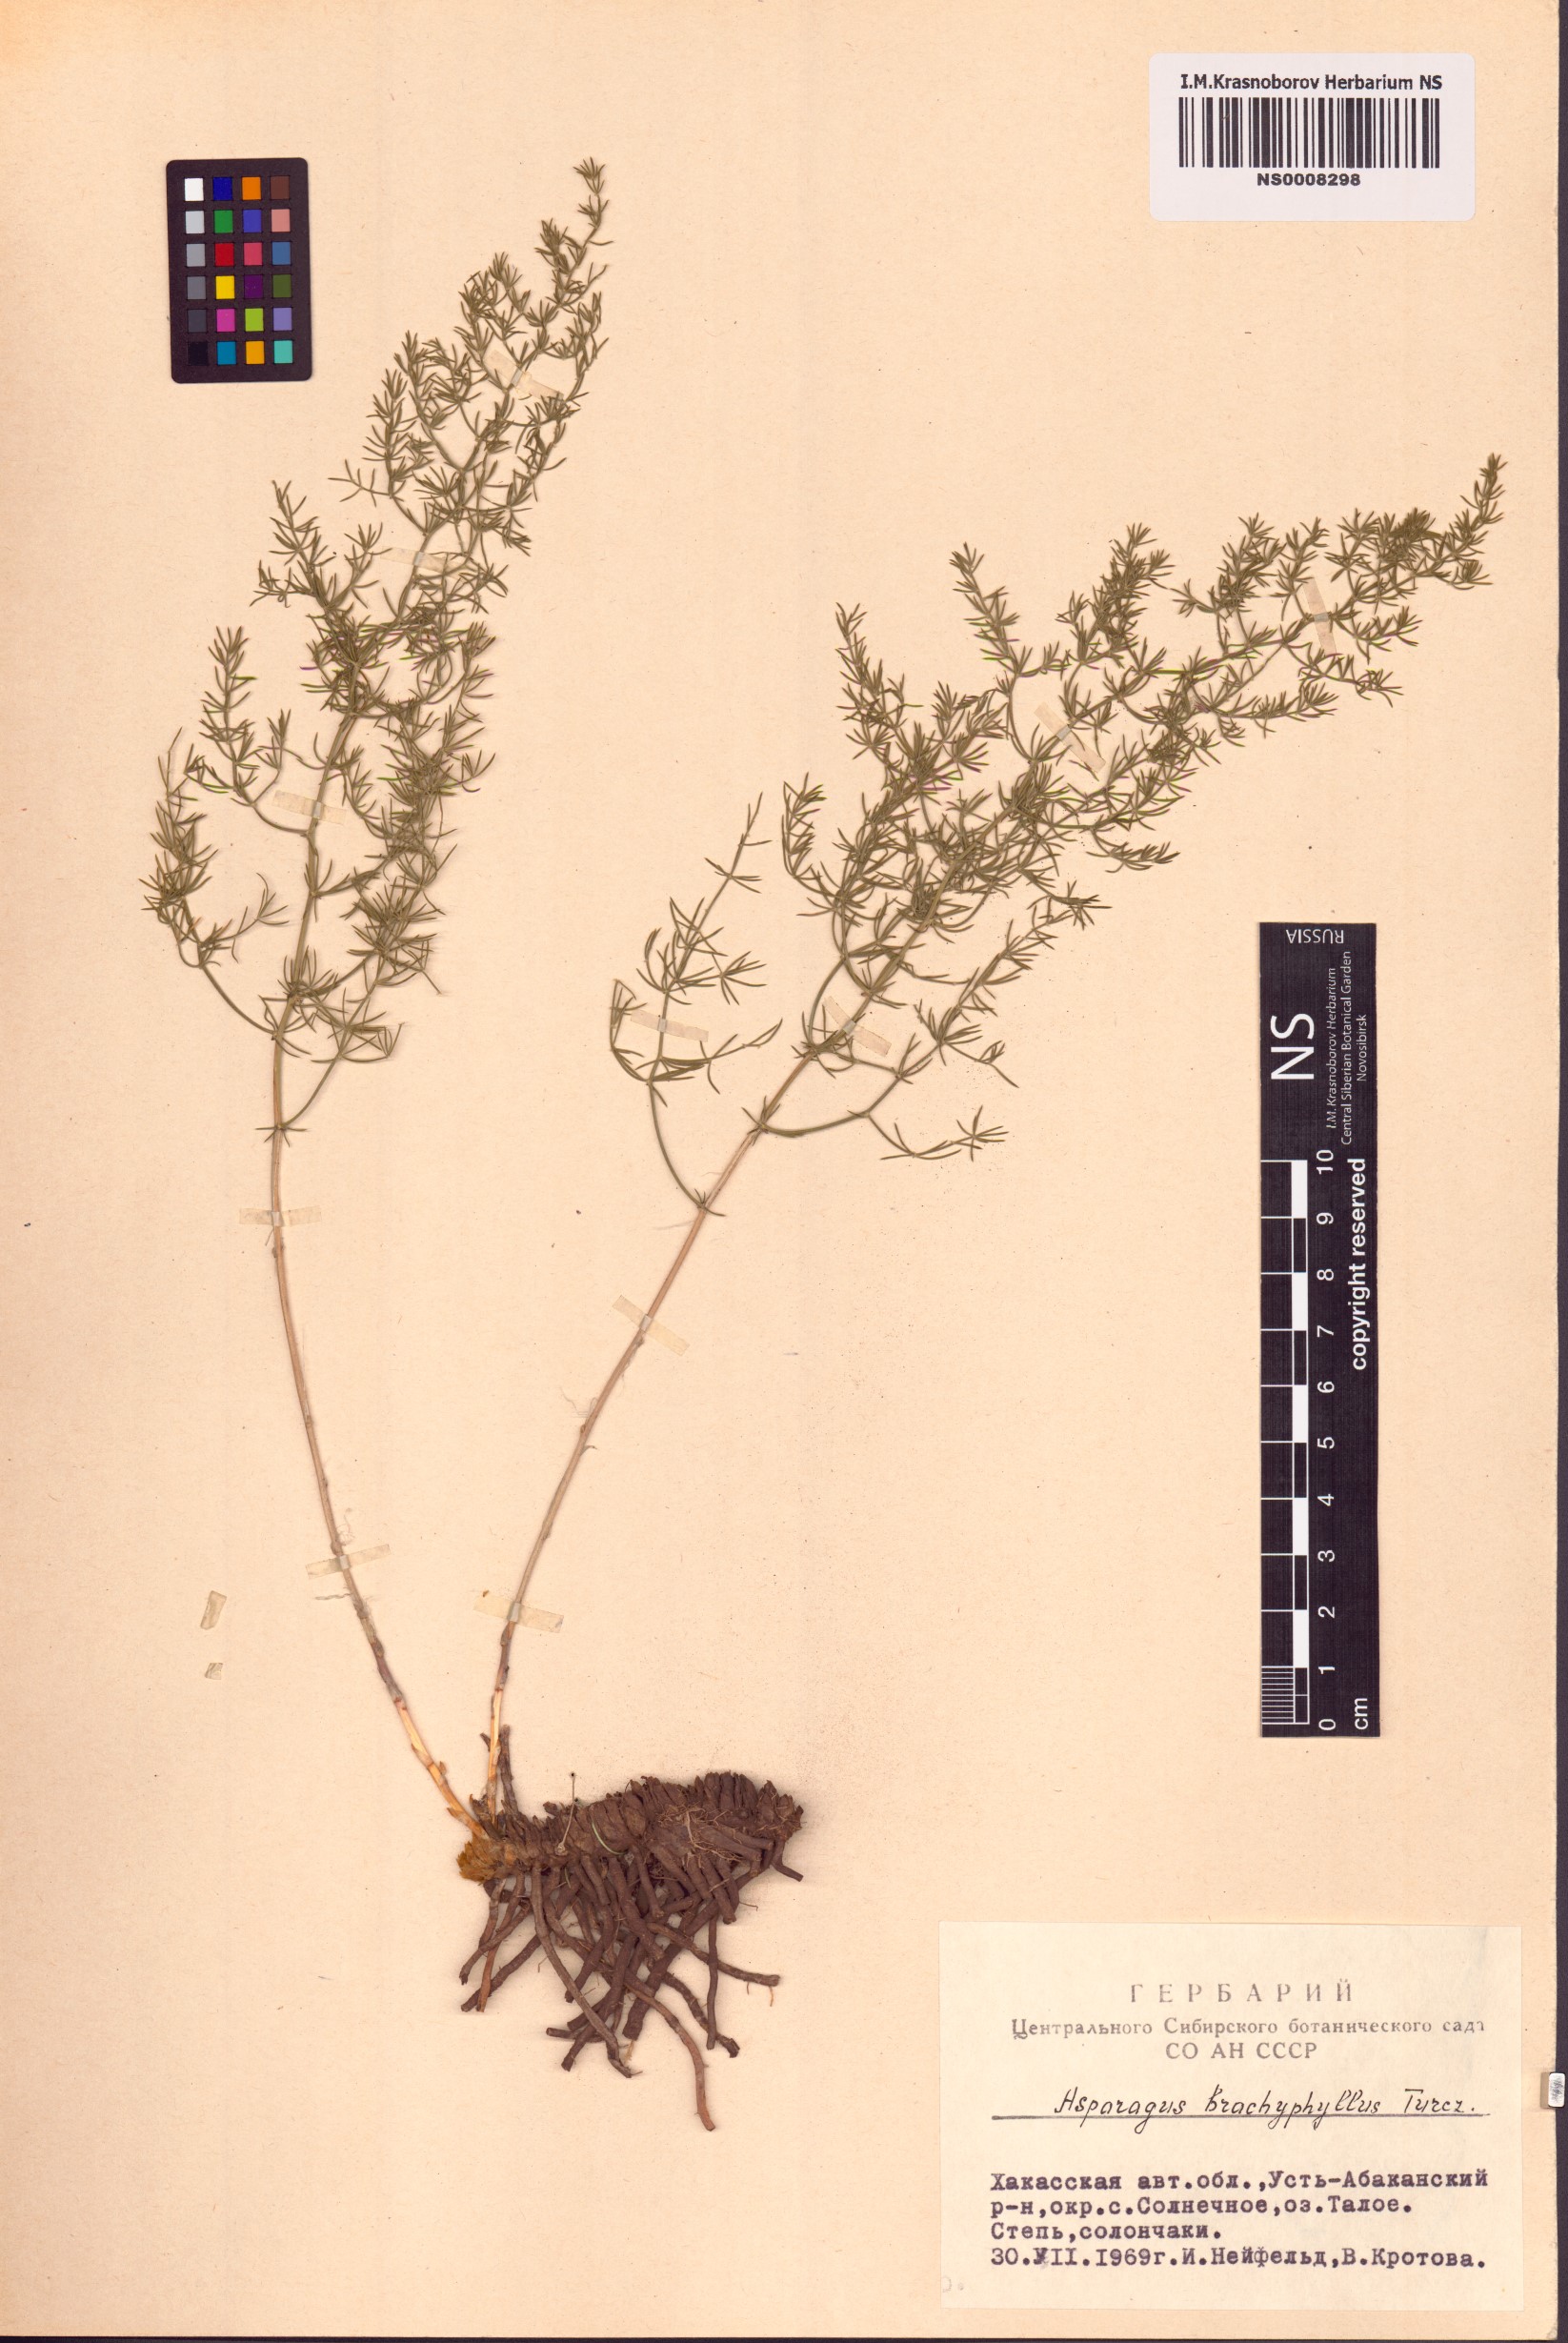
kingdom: Plantae
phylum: Tracheophyta
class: Liliopsida
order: Asparagales
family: Asparagaceae
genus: Asparagus
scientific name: Asparagus brachyphyllus
